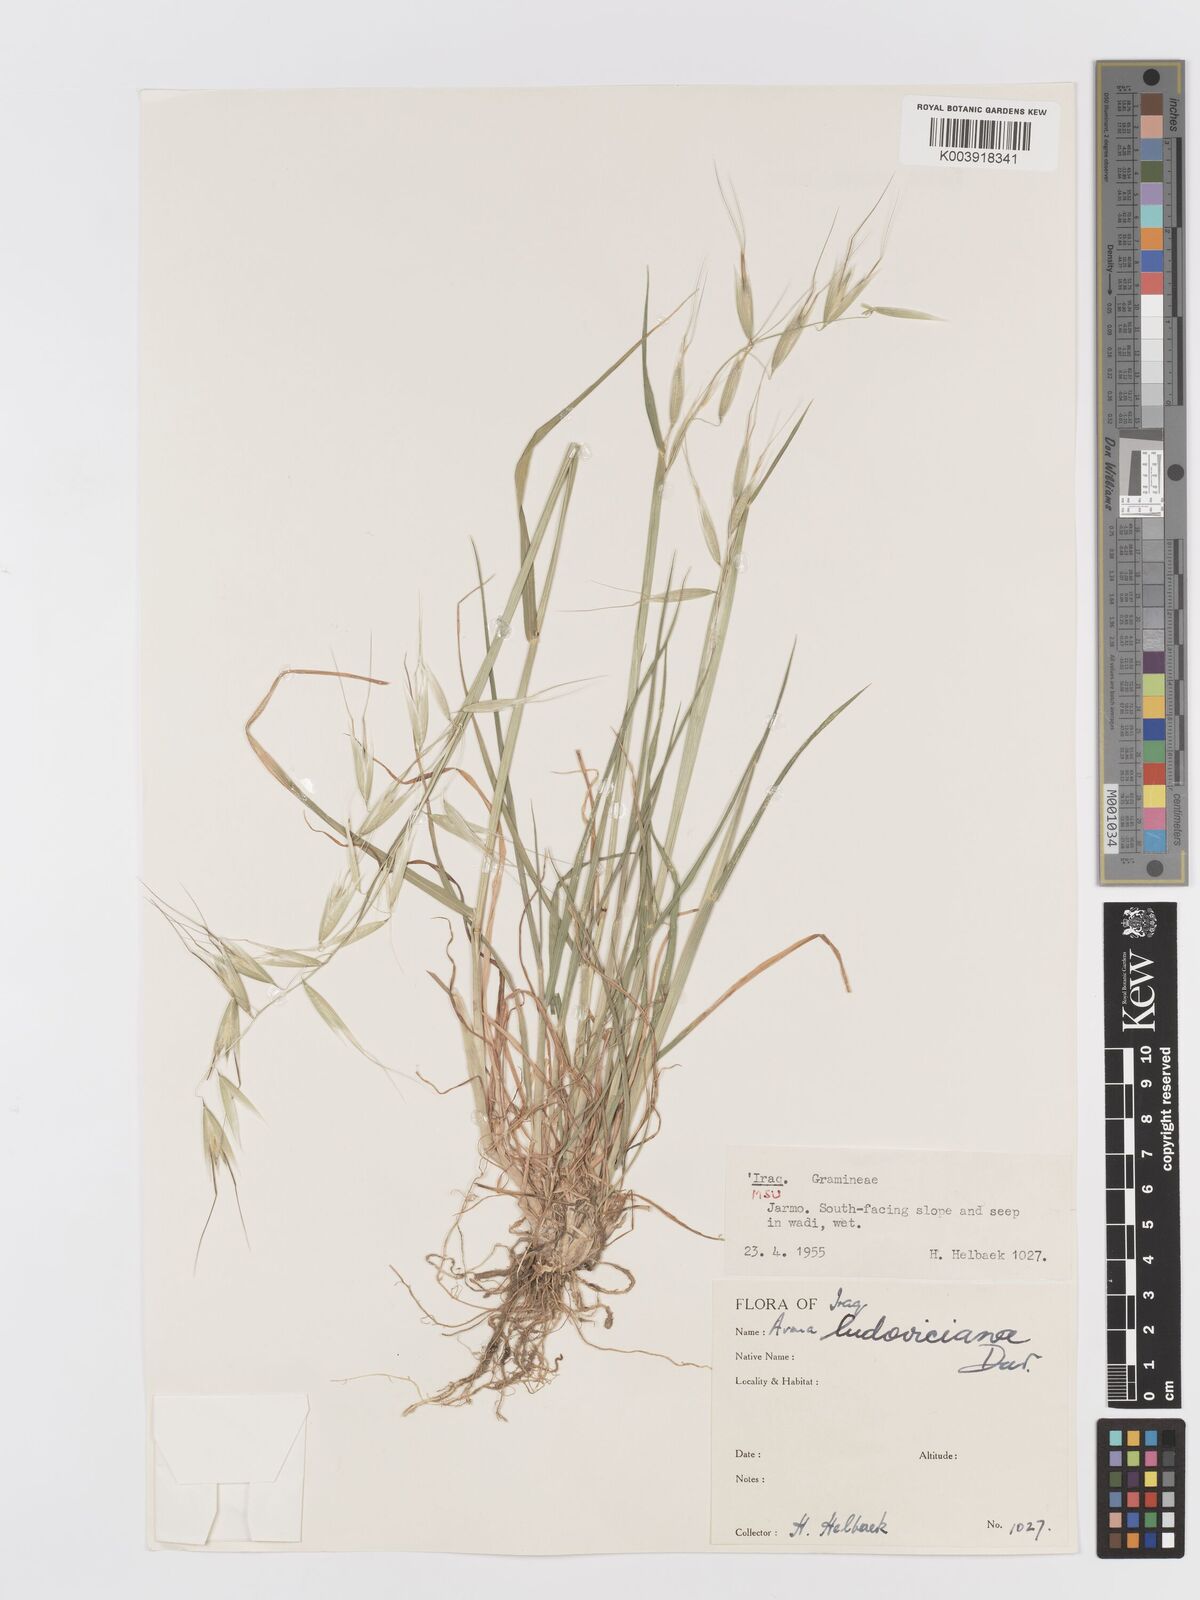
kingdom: Plantae
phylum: Tracheophyta
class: Liliopsida
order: Poales
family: Poaceae
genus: Avena
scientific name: Avena sterilis
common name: Animated oat
